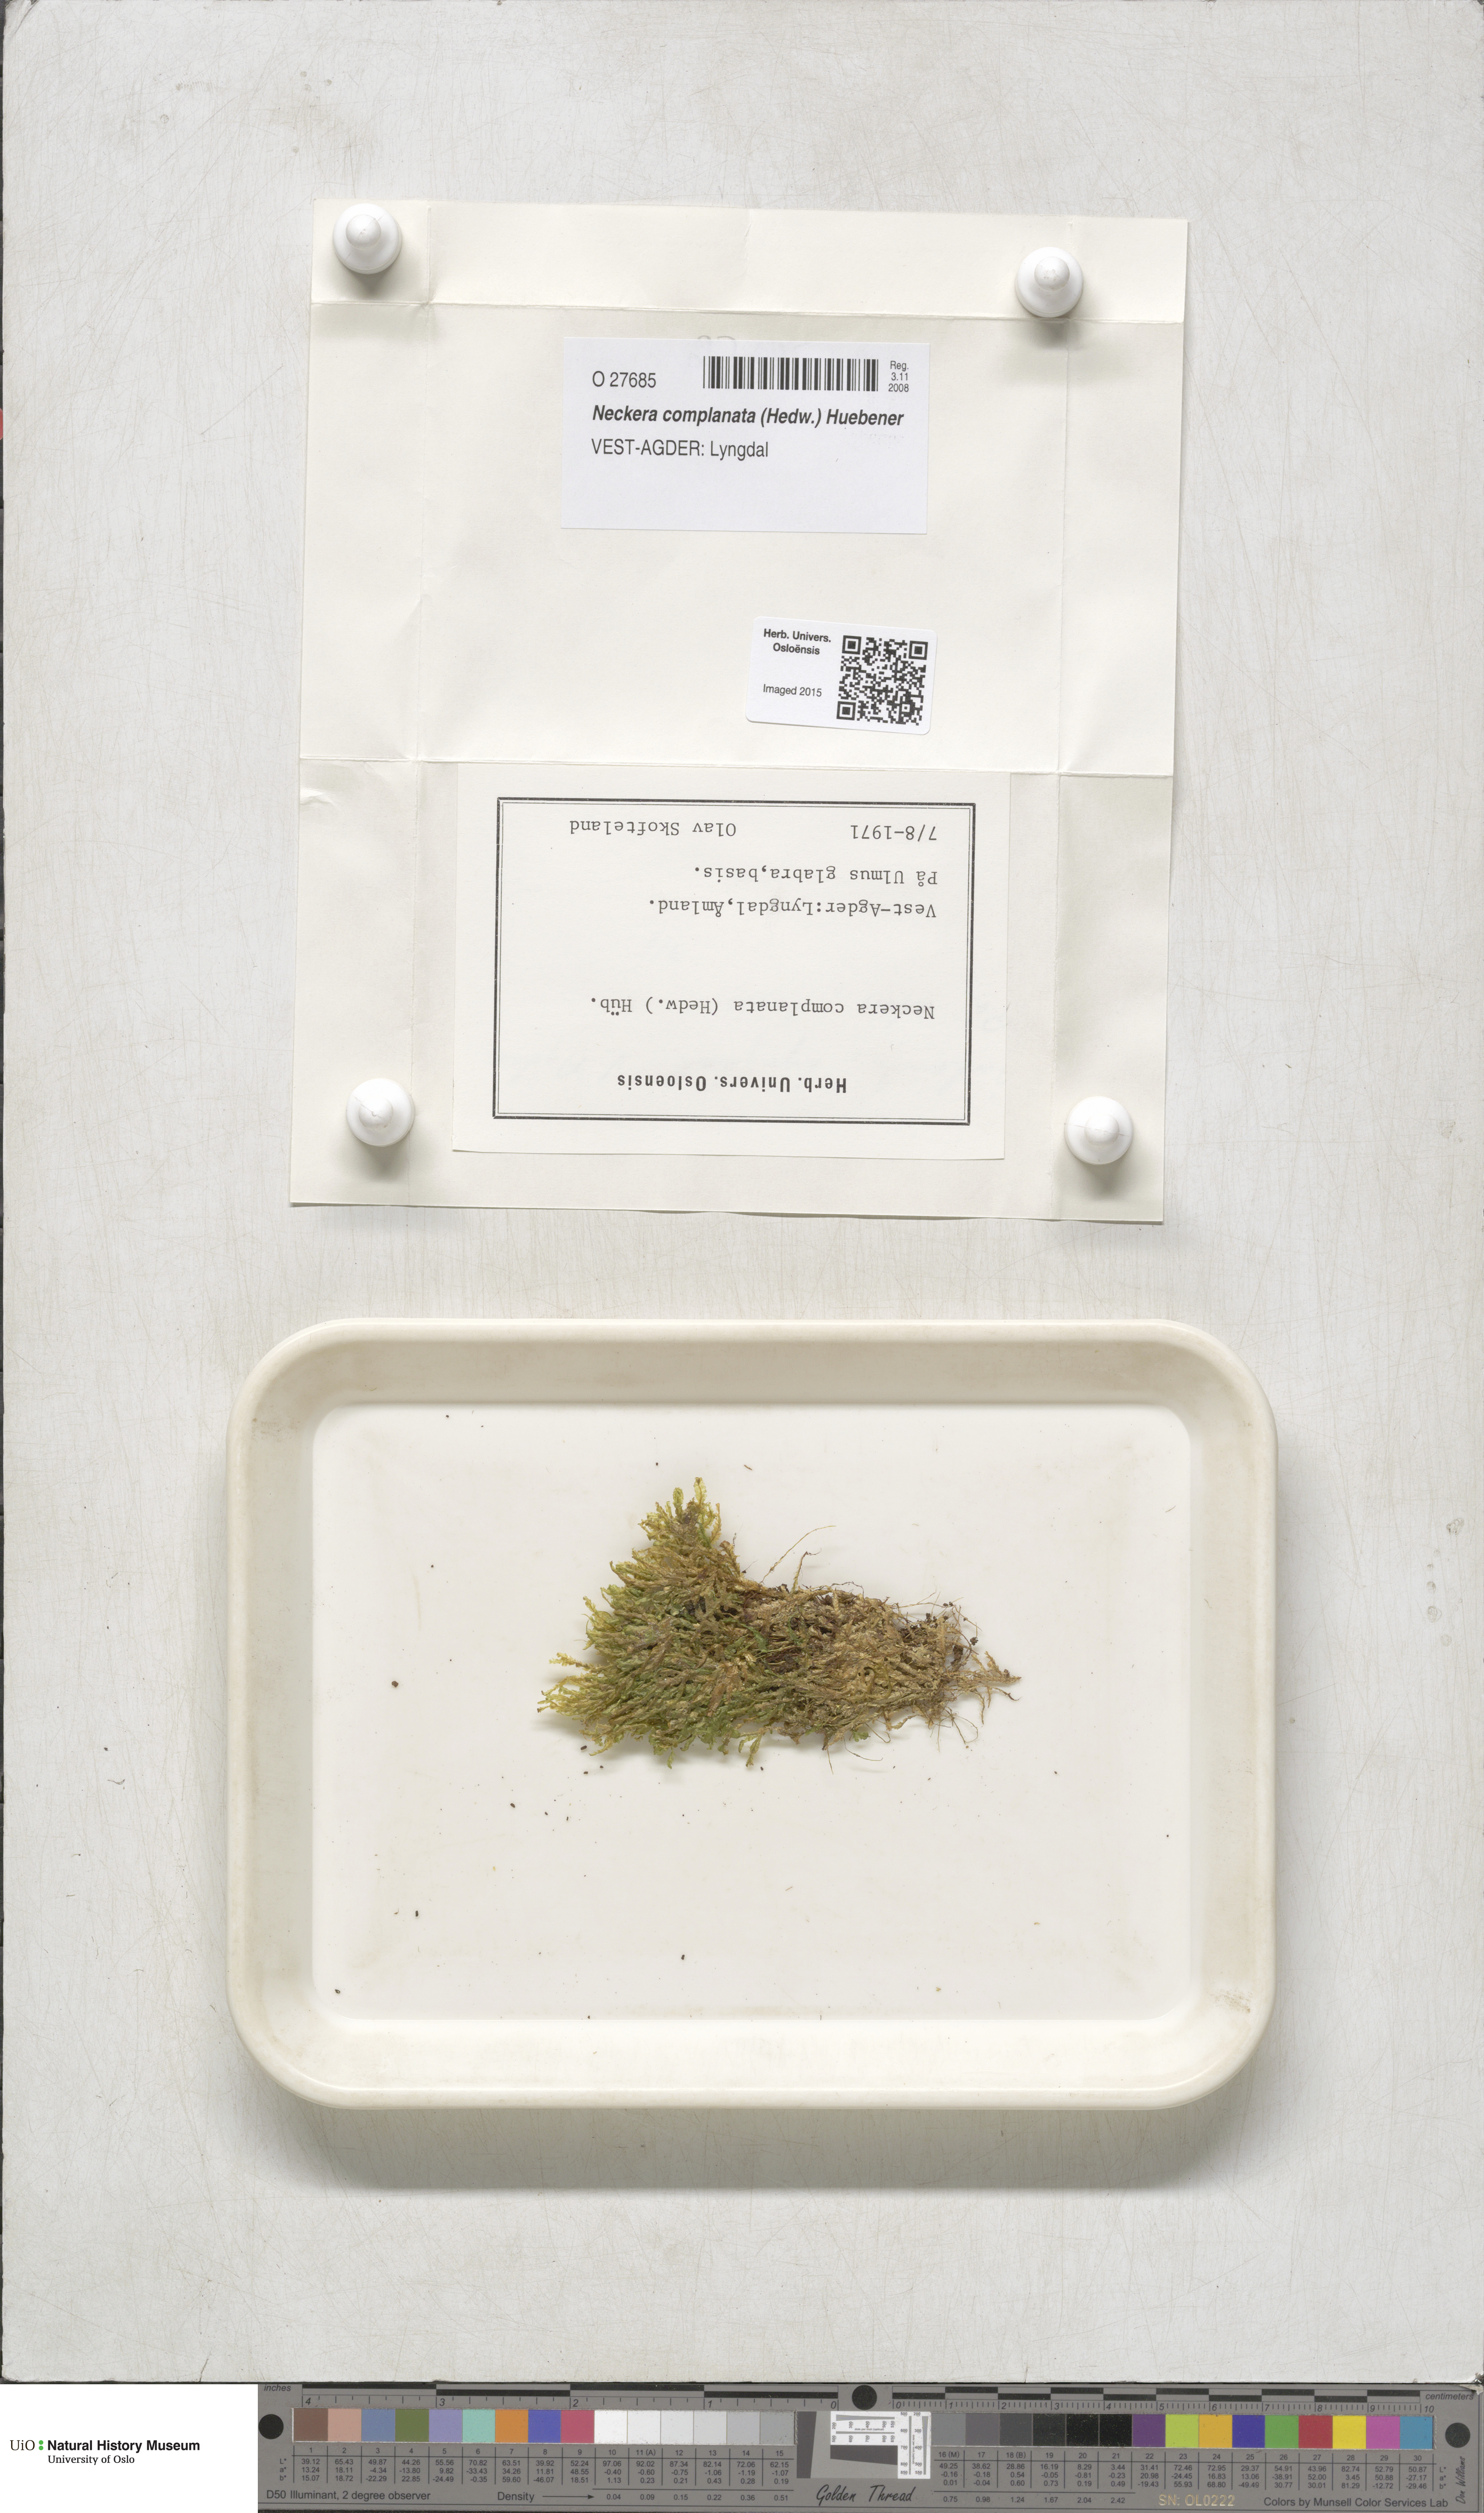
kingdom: Plantae
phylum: Bryophyta
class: Bryopsida
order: Hypnales
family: Neckeraceae
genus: Alleniella
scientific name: Alleniella complanata
